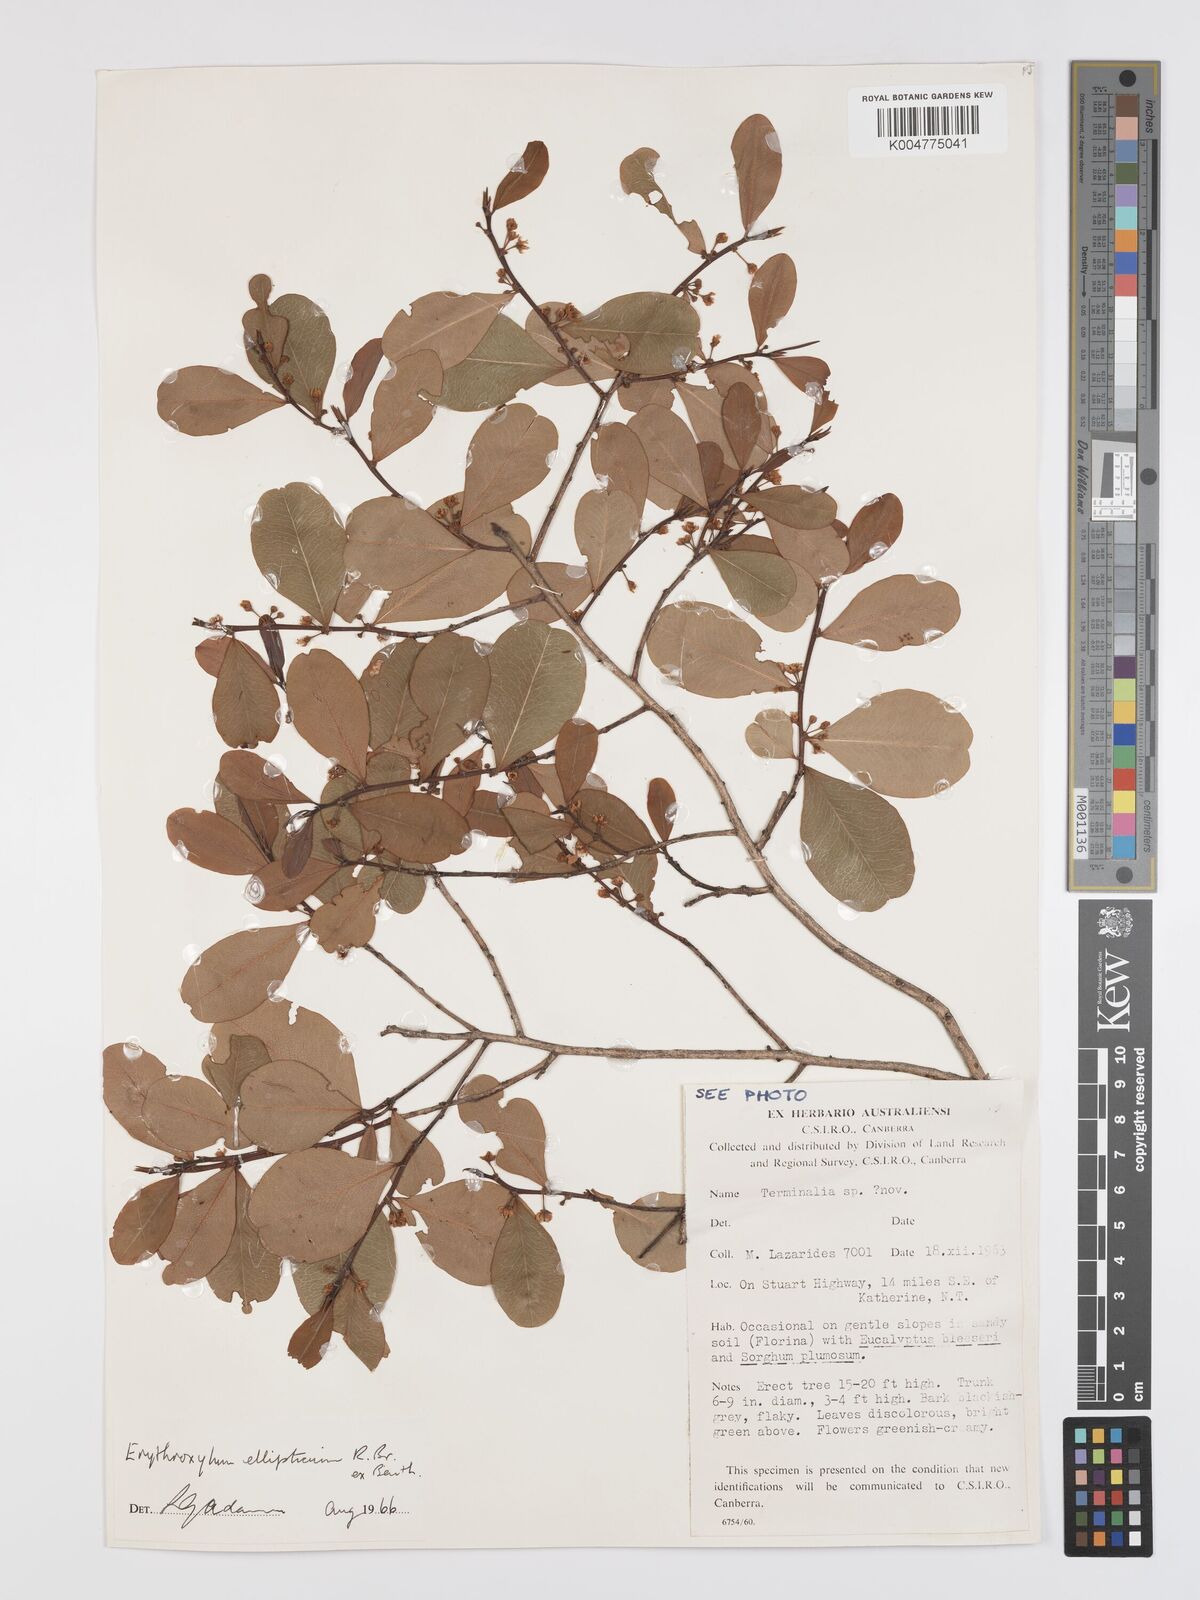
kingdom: Plantae
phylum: Tracheophyta
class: Magnoliopsida
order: Malpighiales
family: Erythroxylaceae
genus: Erythroxylum
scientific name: Erythroxylum
